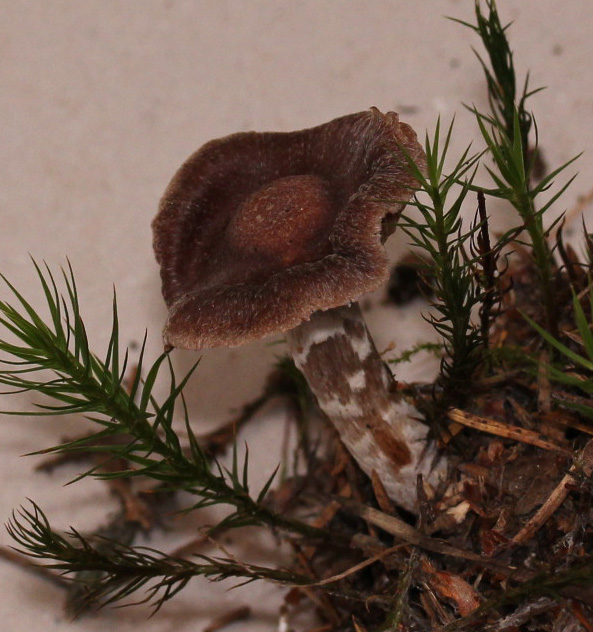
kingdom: Fungi
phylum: Basidiomycota
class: Agaricomycetes
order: Agaricales
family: Cortinariaceae
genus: Cortinarius
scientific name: Cortinarius lindstroemii
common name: Håkons slørhat
